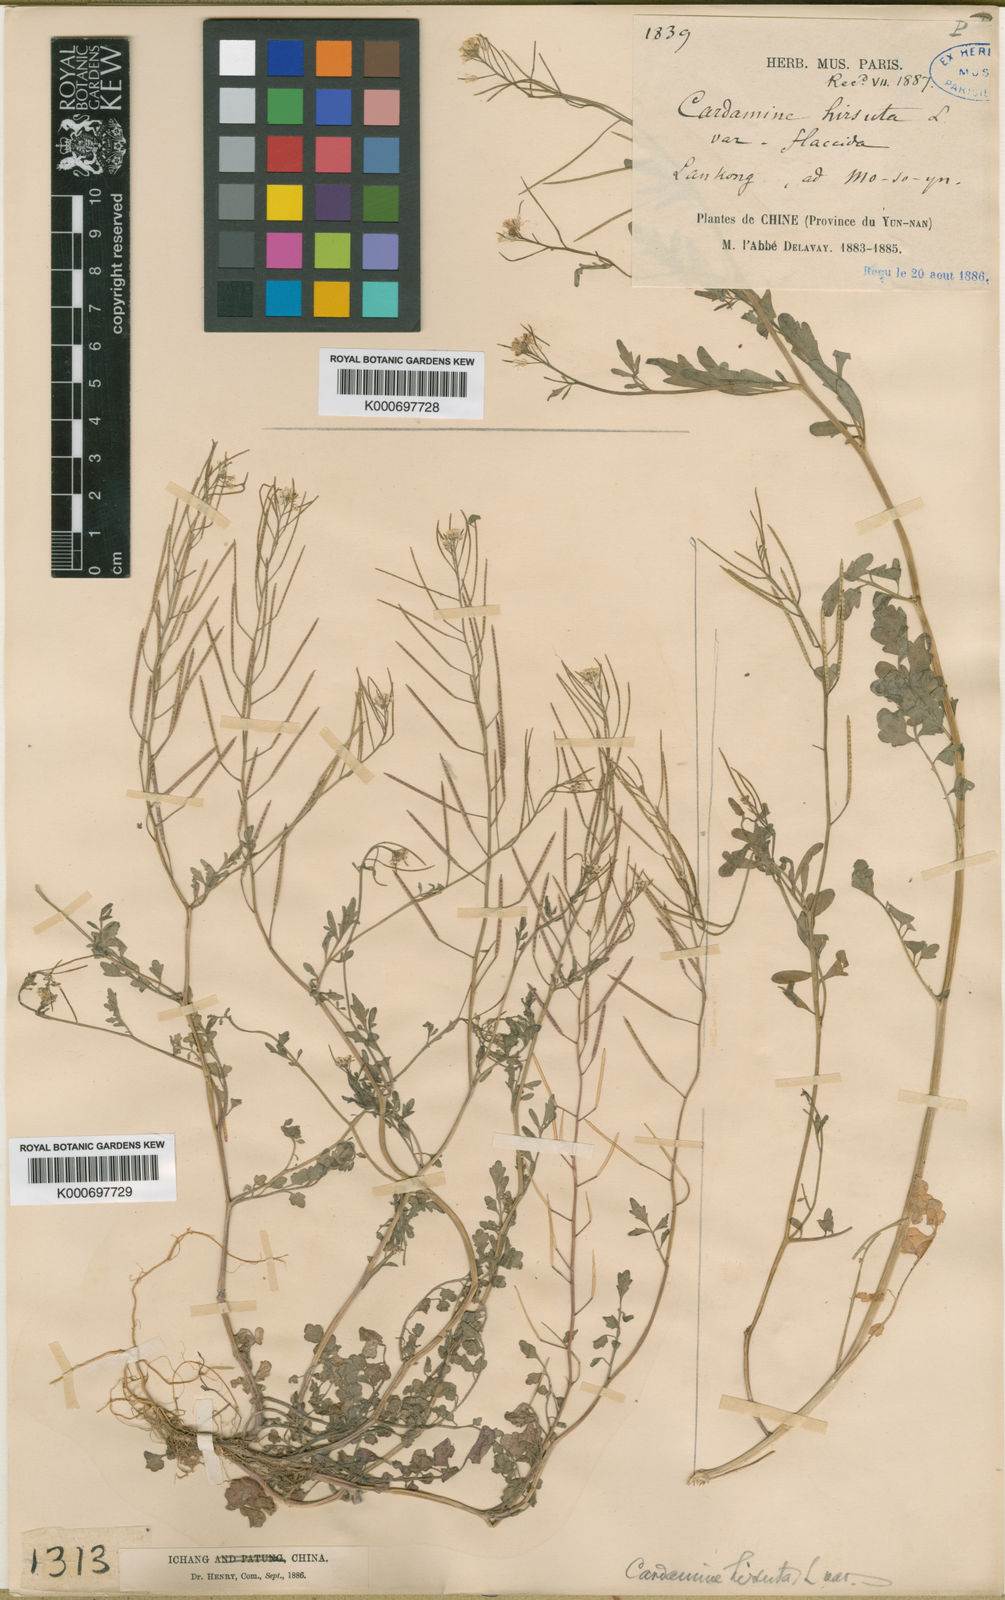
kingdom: Plantae
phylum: Tracheophyta
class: Magnoliopsida
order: Brassicales
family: Brassicaceae
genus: Cardamine
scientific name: Cardamine hirsuta
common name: Hairy bittercress
